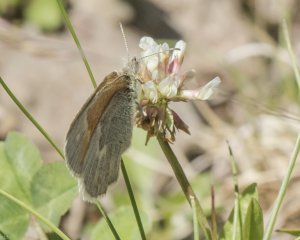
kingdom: Animalia
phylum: Arthropoda
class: Insecta
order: Lepidoptera
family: Nymphalidae
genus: Coenonympha
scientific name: Coenonympha tullia
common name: Large Heath
